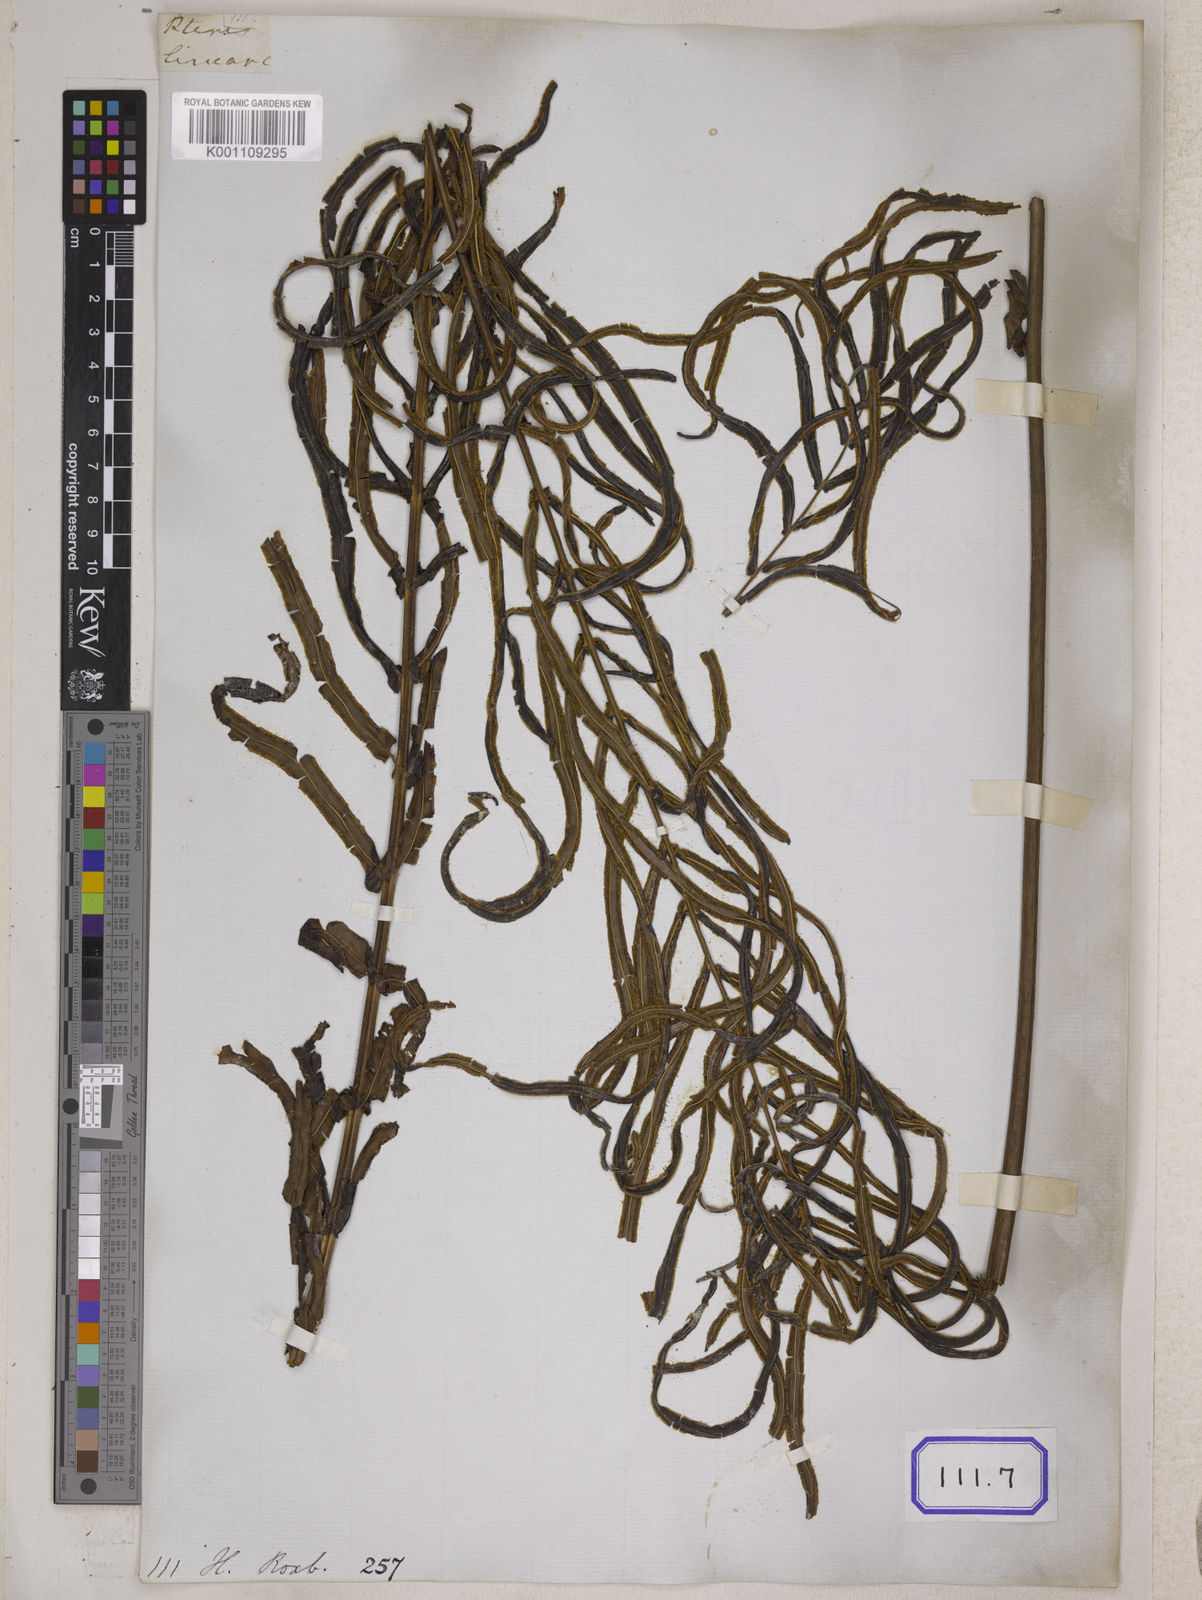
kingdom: Plantae
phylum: Tracheophyta
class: Polypodiopsida
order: Polypodiales
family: Pteridaceae
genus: Pteris
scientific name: Pteris longifolia
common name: Longleaf brake
